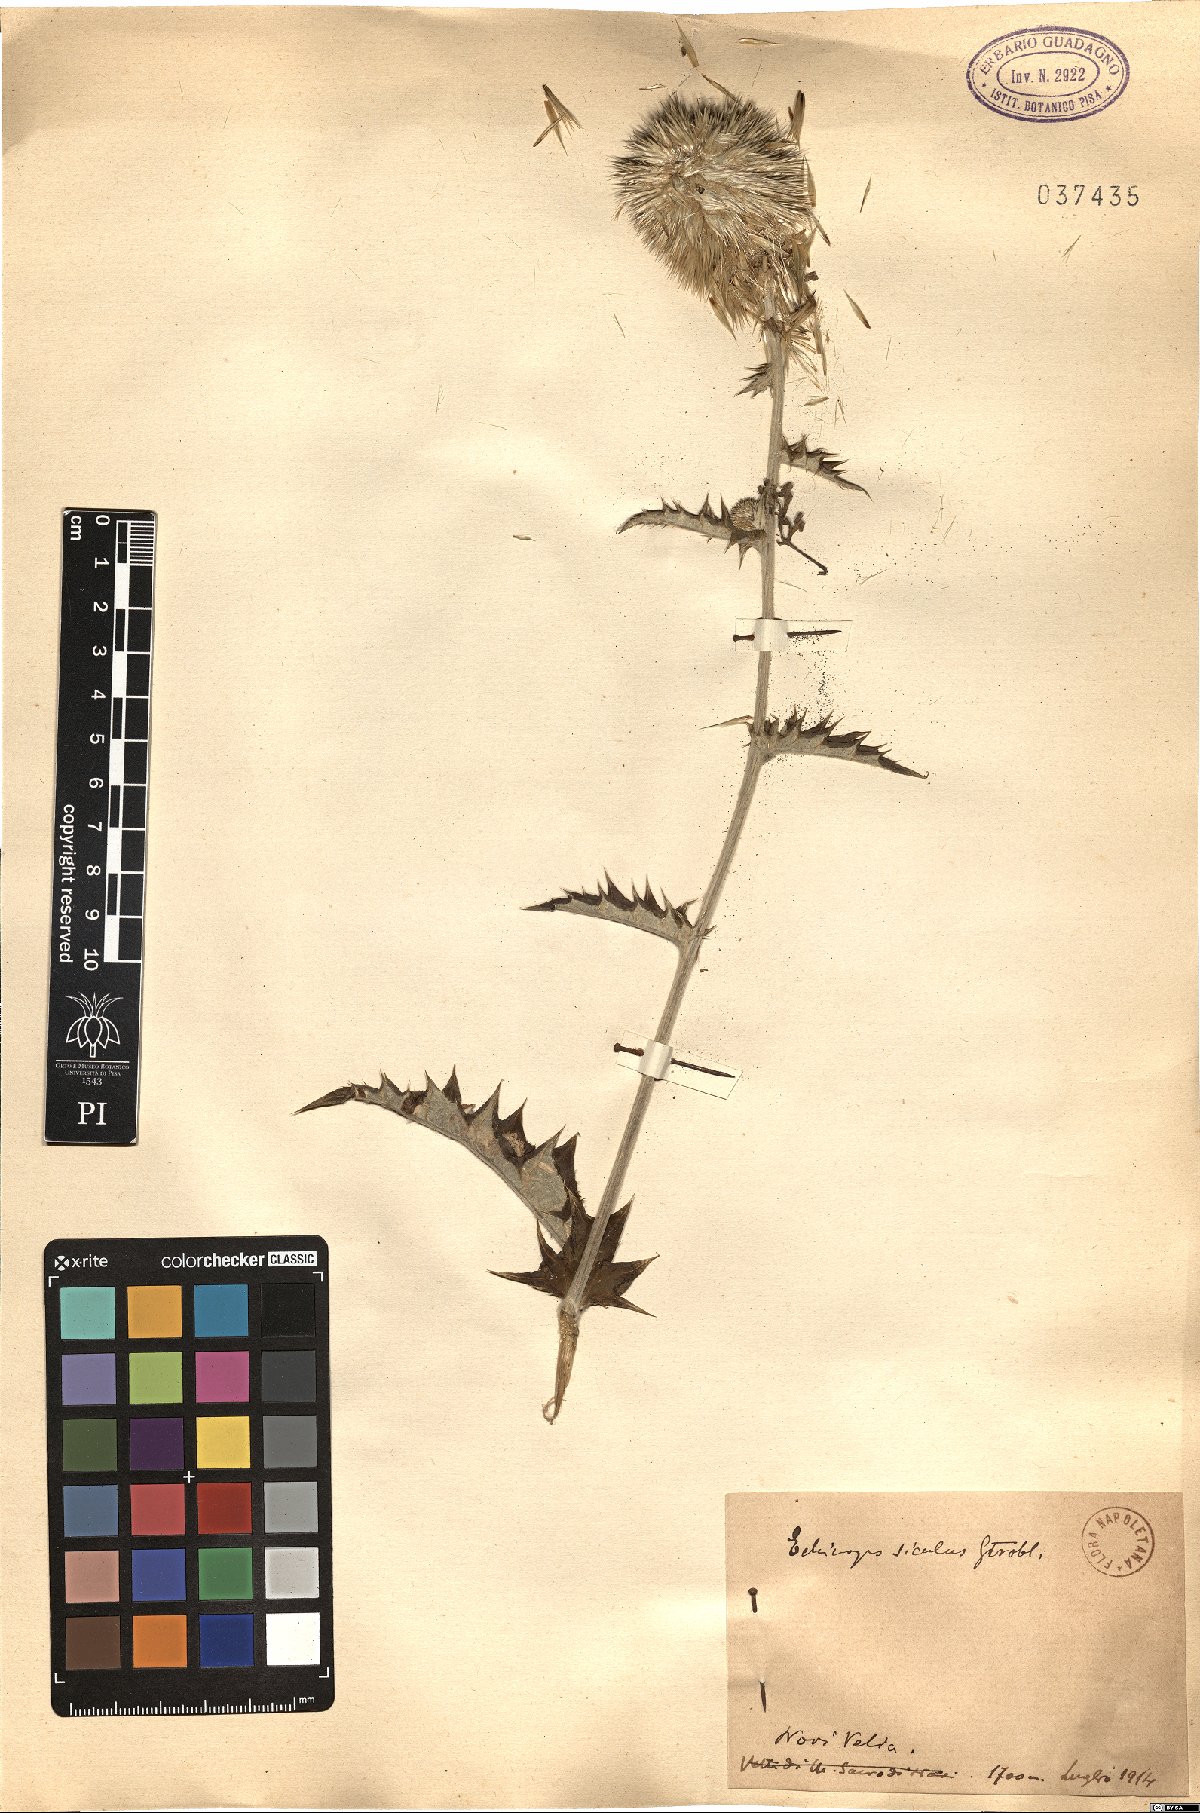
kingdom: Plantae
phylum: Tracheophyta
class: Magnoliopsida
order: Asterales
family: Asteraceae
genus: Echinops
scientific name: Echinops ritro
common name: Globe thistle
